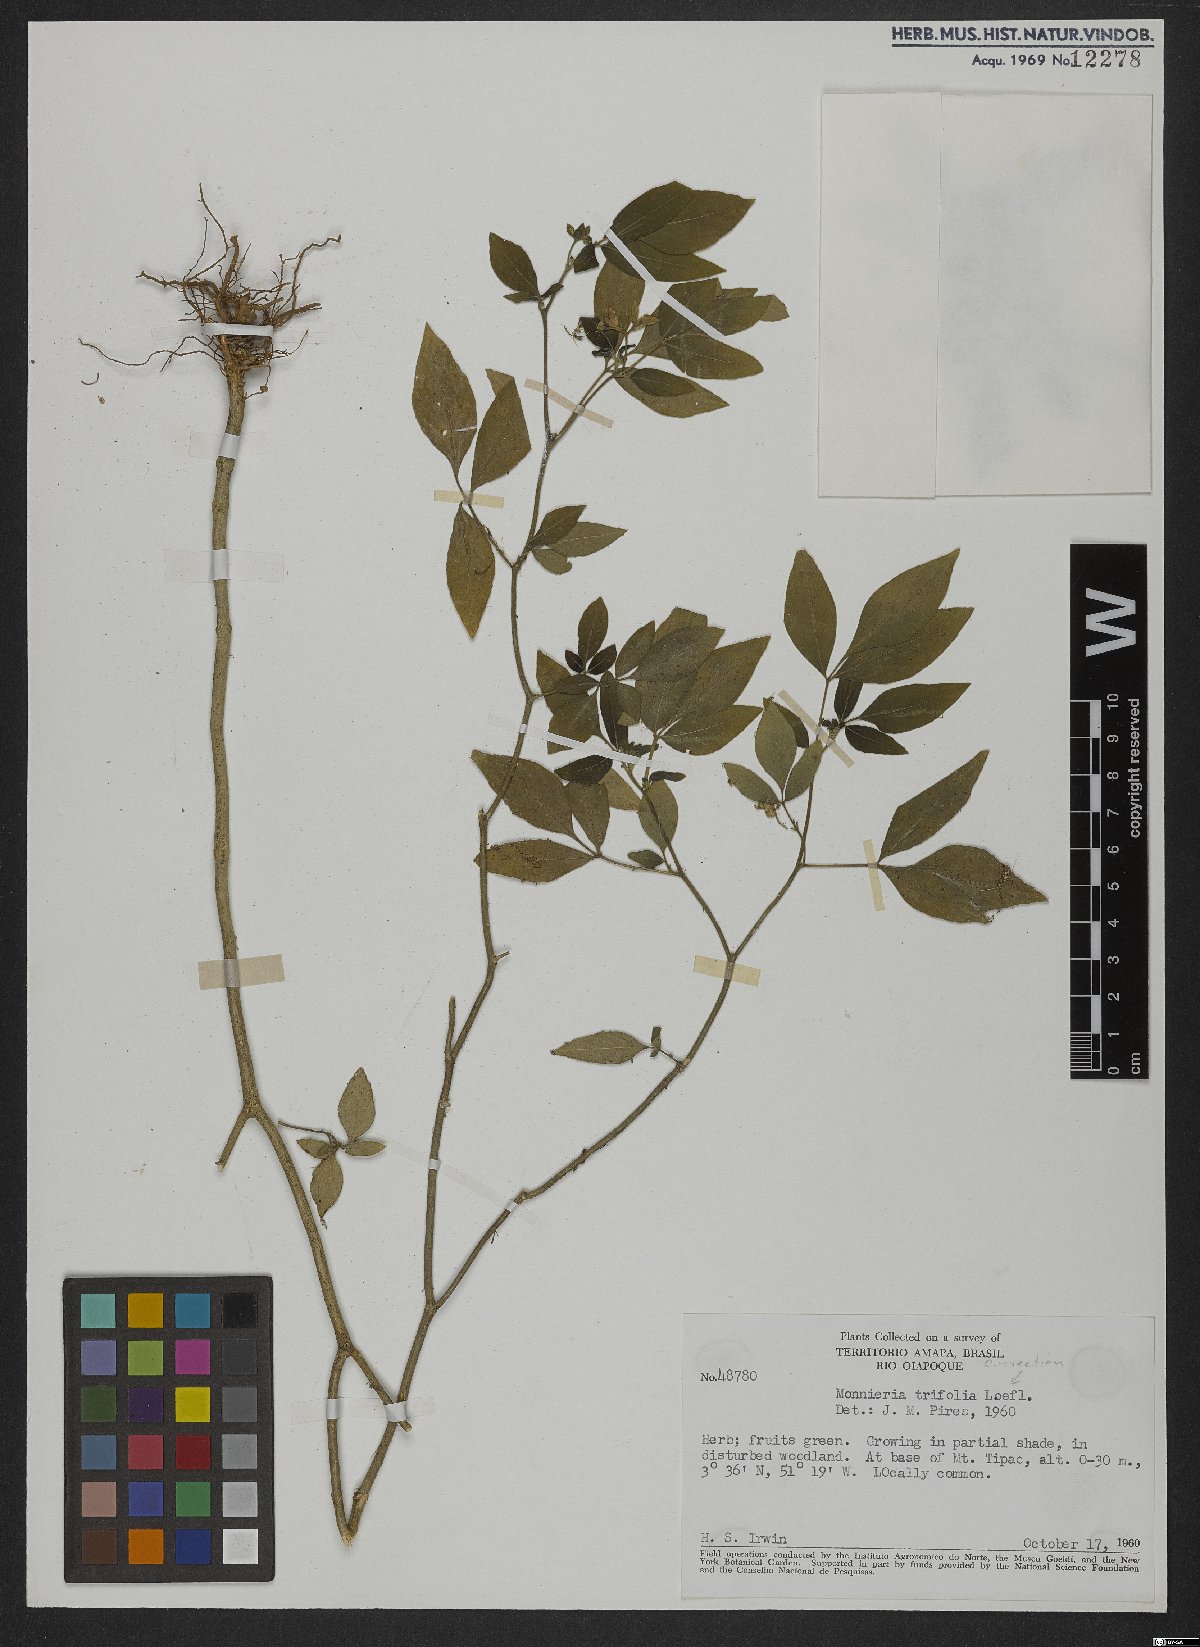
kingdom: Plantae
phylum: Tracheophyta
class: Magnoliopsida
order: Sapindales
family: Rutaceae
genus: Ertela
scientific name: Ertela trifolia
